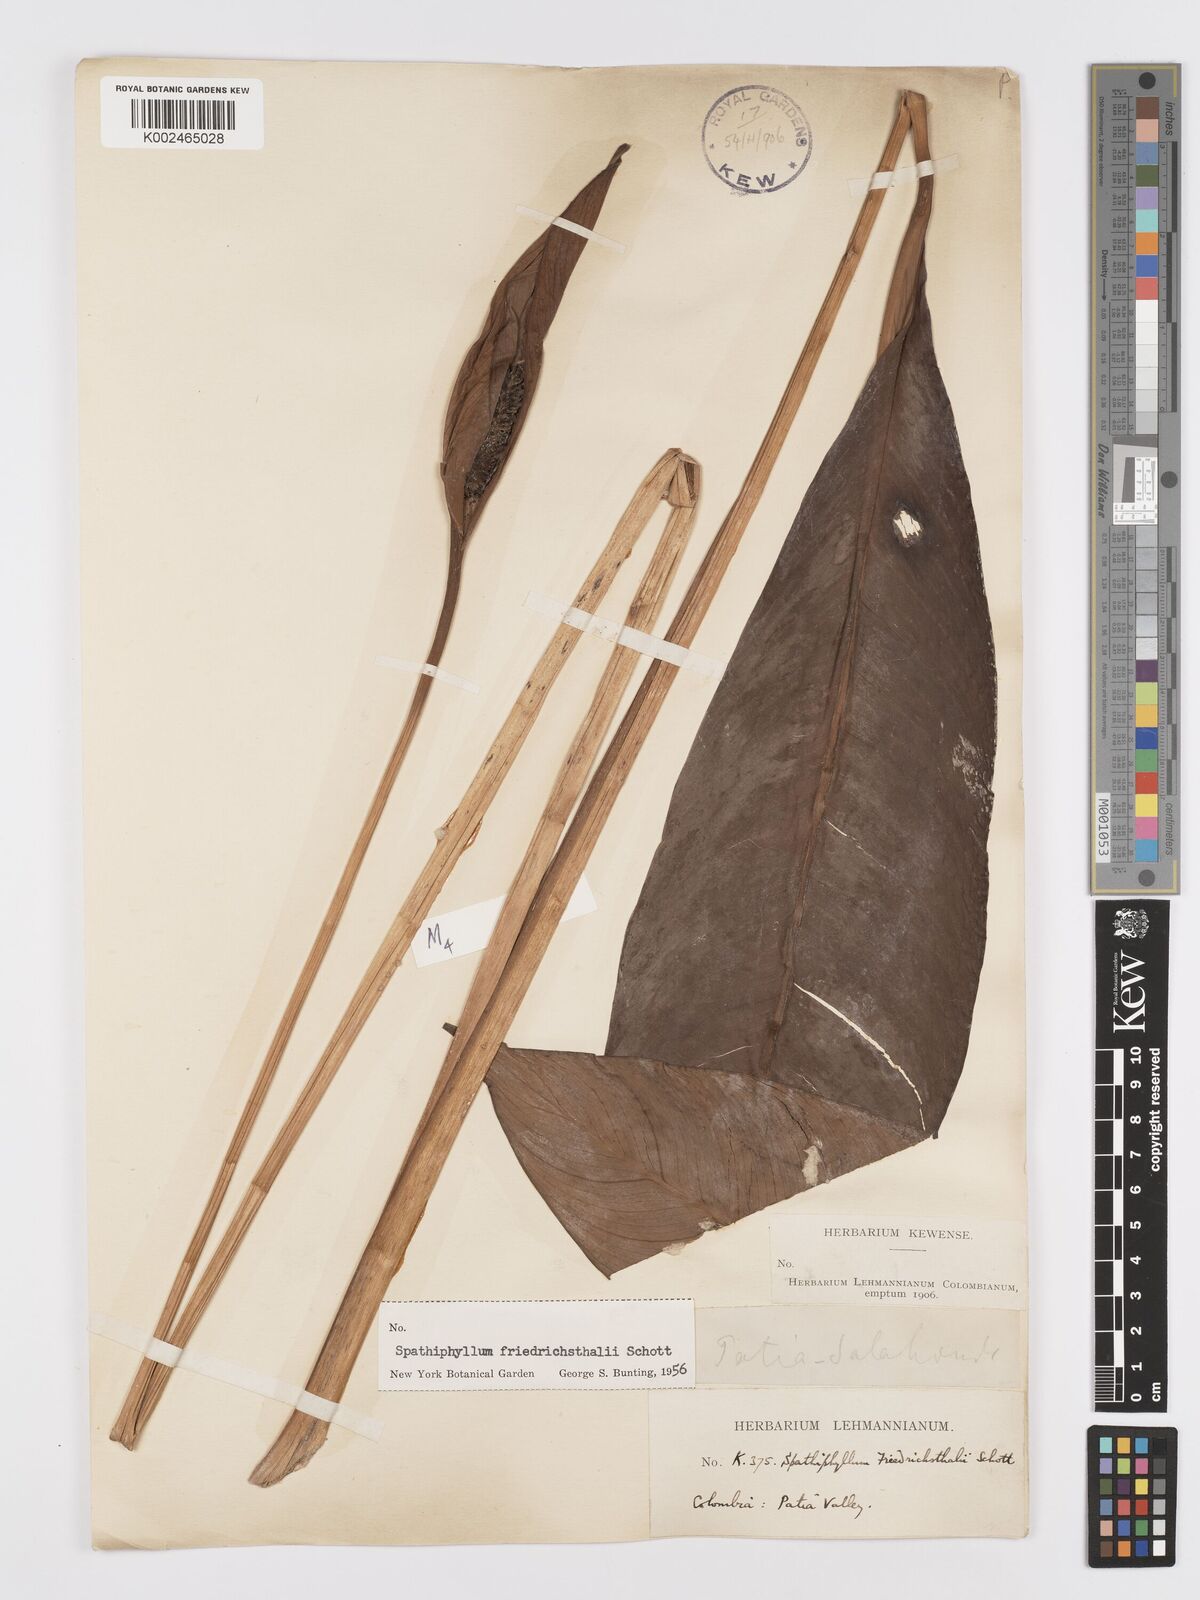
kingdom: Plantae
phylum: Tracheophyta
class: Liliopsida
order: Alismatales
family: Araceae
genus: Spathiphyllum
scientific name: Spathiphyllum friedrichsthalii
